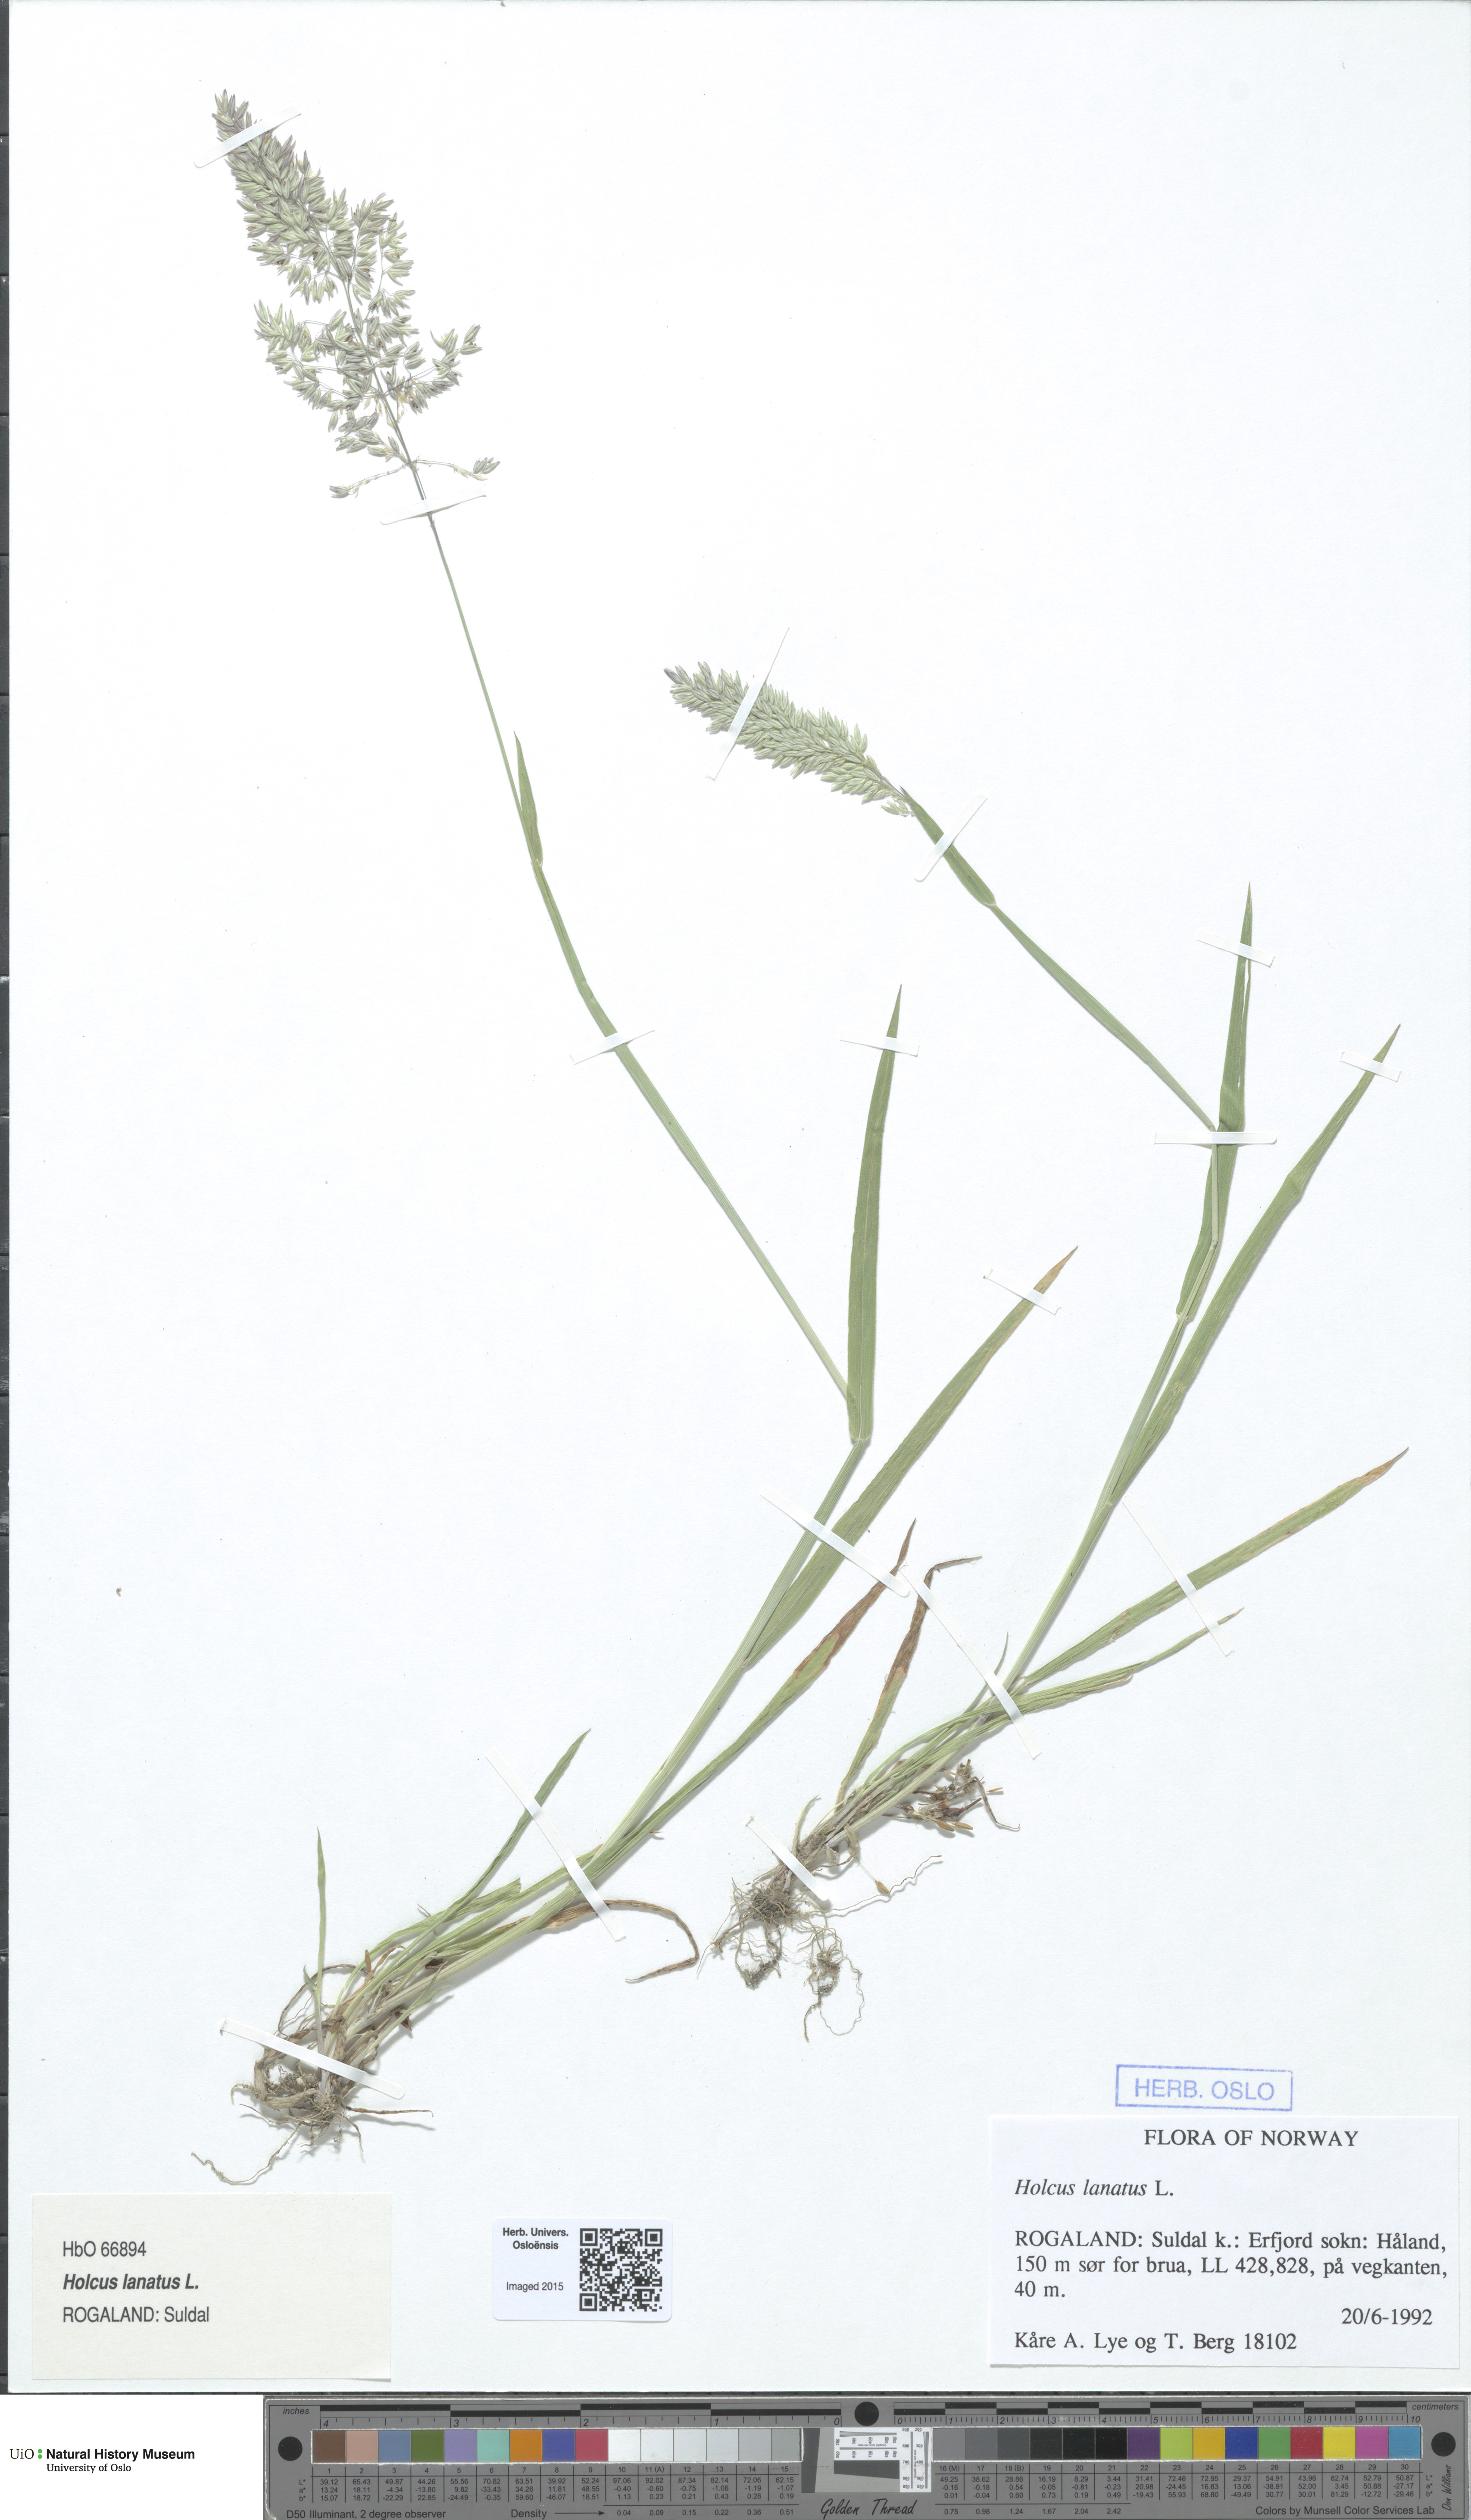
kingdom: Plantae
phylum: Tracheophyta
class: Liliopsida
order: Poales
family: Poaceae
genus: Holcus
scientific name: Holcus lanatus
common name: Yorkshire-fog
